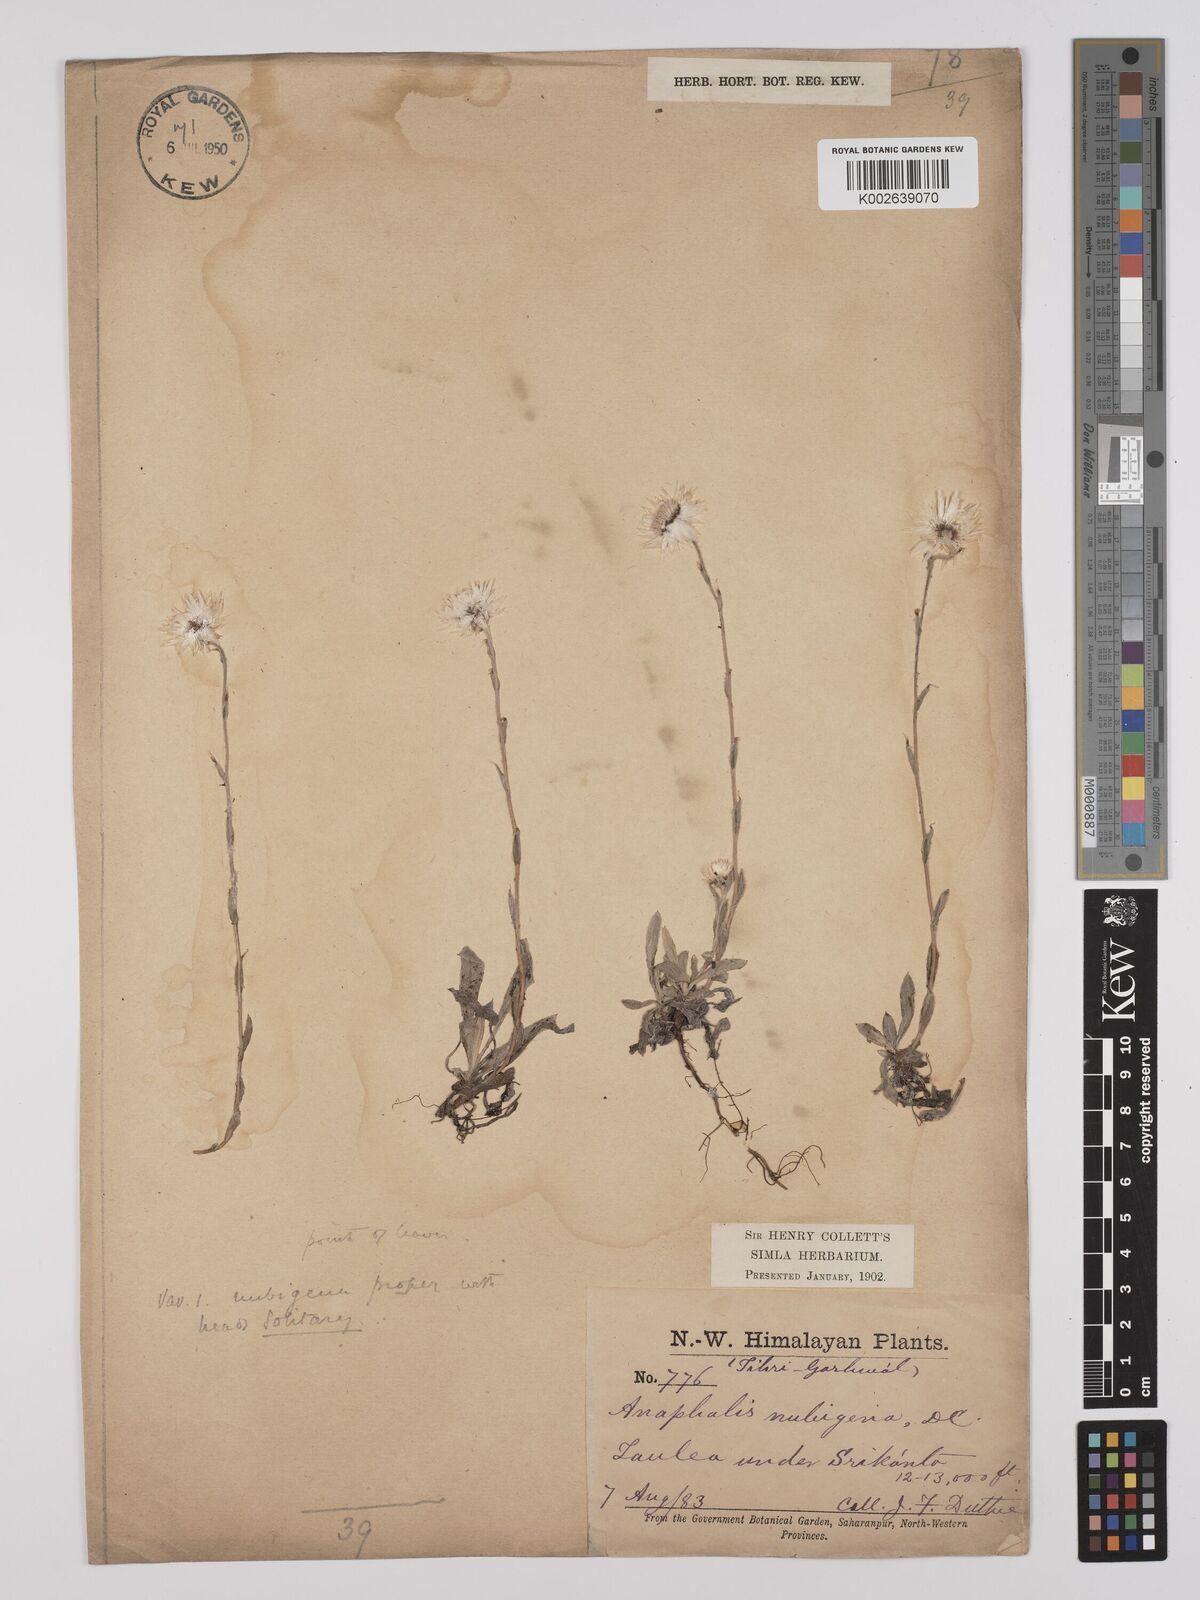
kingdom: Plantae
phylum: Tracheophyta
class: Magnoliopsida
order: Asterales
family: Asteraceae
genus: Anaphalis
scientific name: Anaphalis nepalensis
